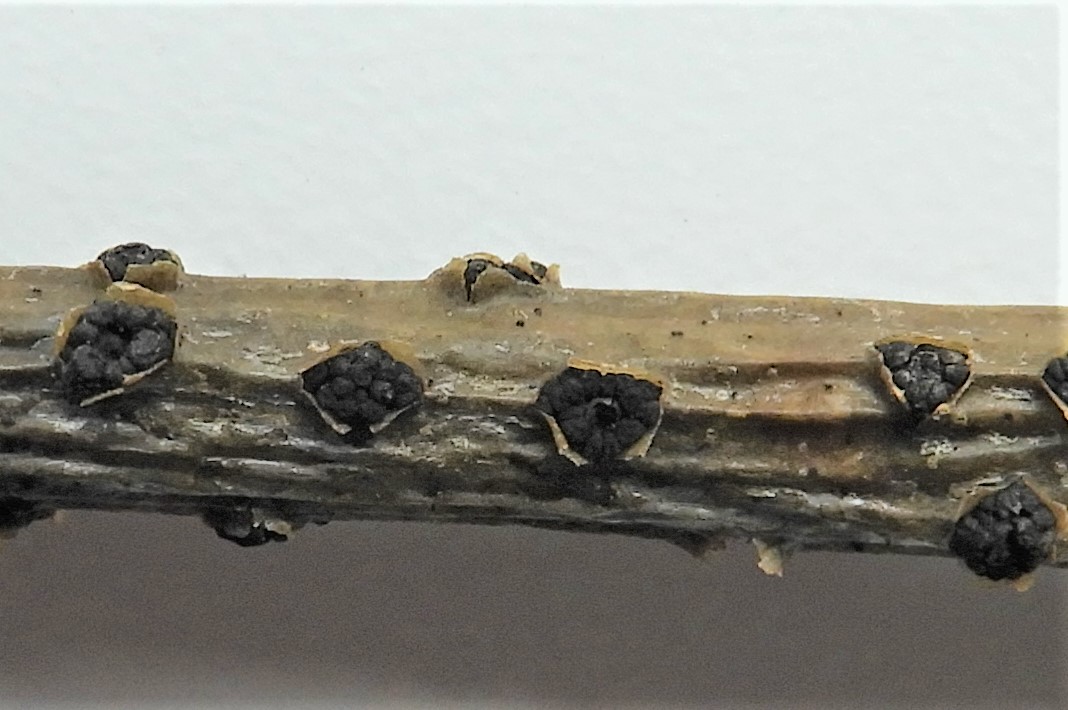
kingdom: Fungi
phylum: Ascomycota
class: Dothideomycetes
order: Pleosporales
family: Camarosporidiellaceae
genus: Camarosporidiella
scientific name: Camarosporidiella laburni
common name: guldregn-tykbær
